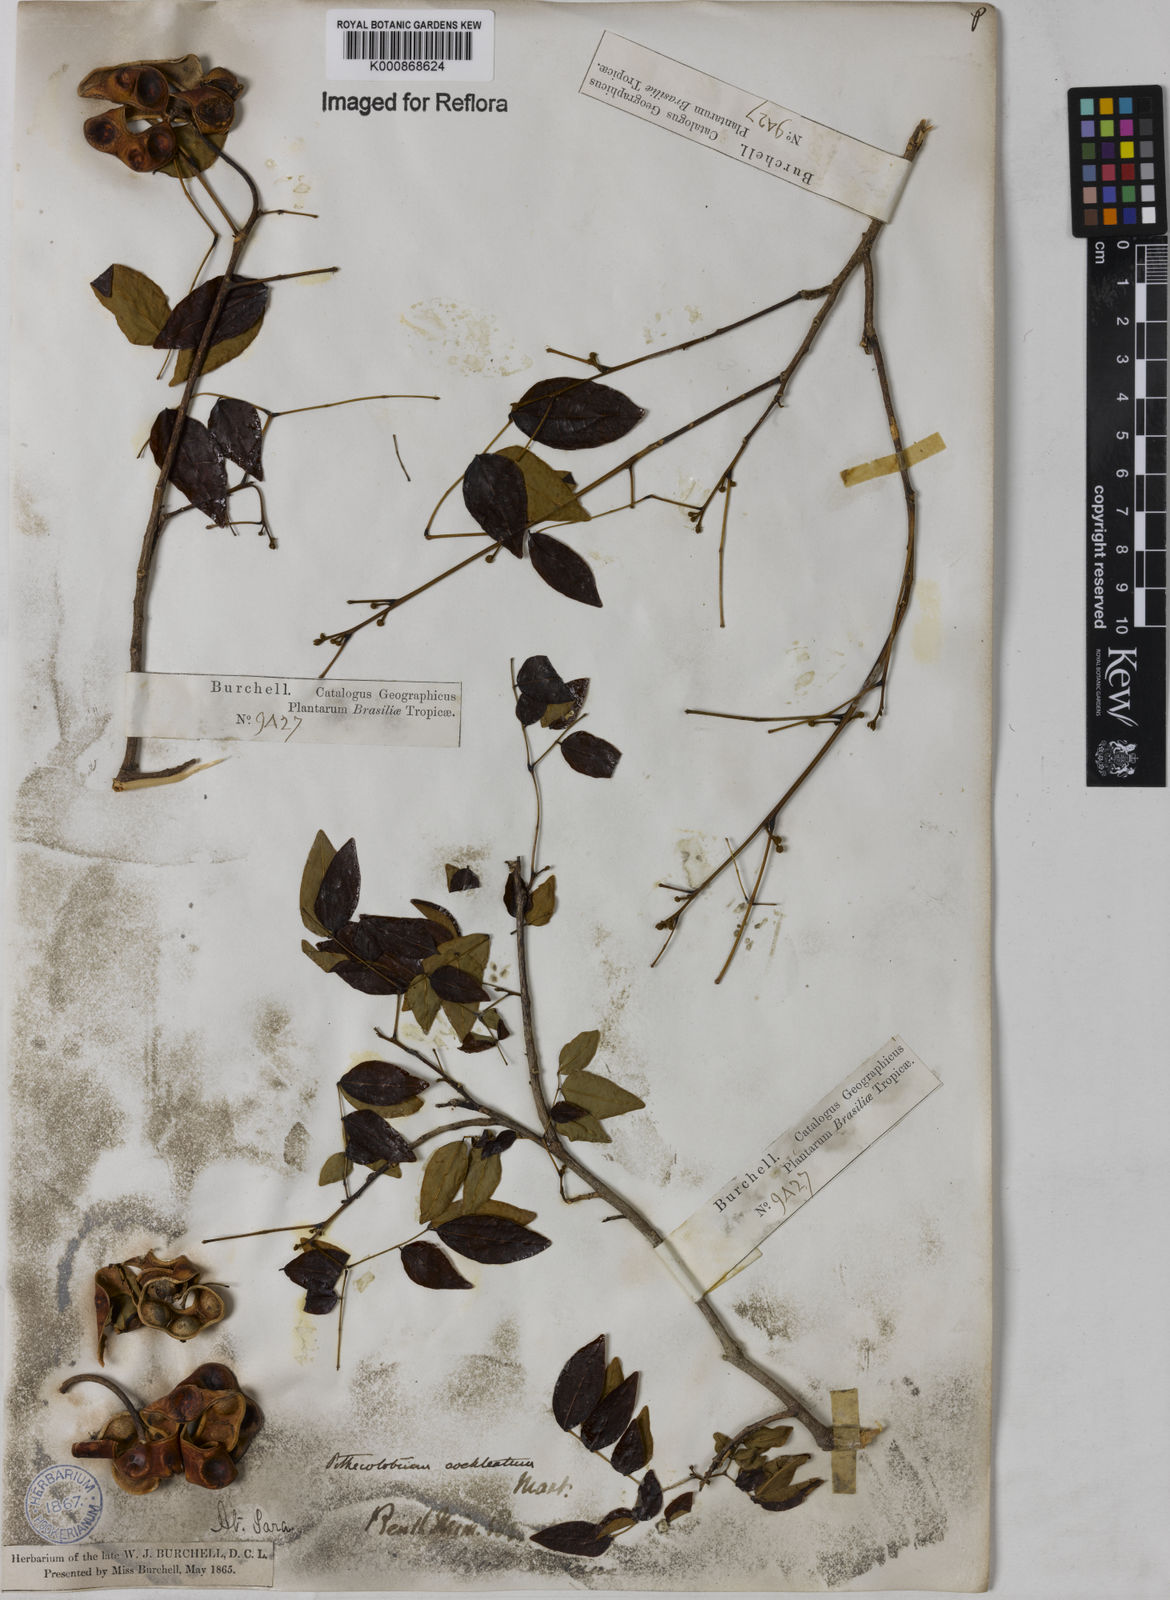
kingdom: Plantae
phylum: Tracheophyta
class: Magnoliopsida
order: Fabales
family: Fabaceae
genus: Jupunba
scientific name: Jupunba cochleata
